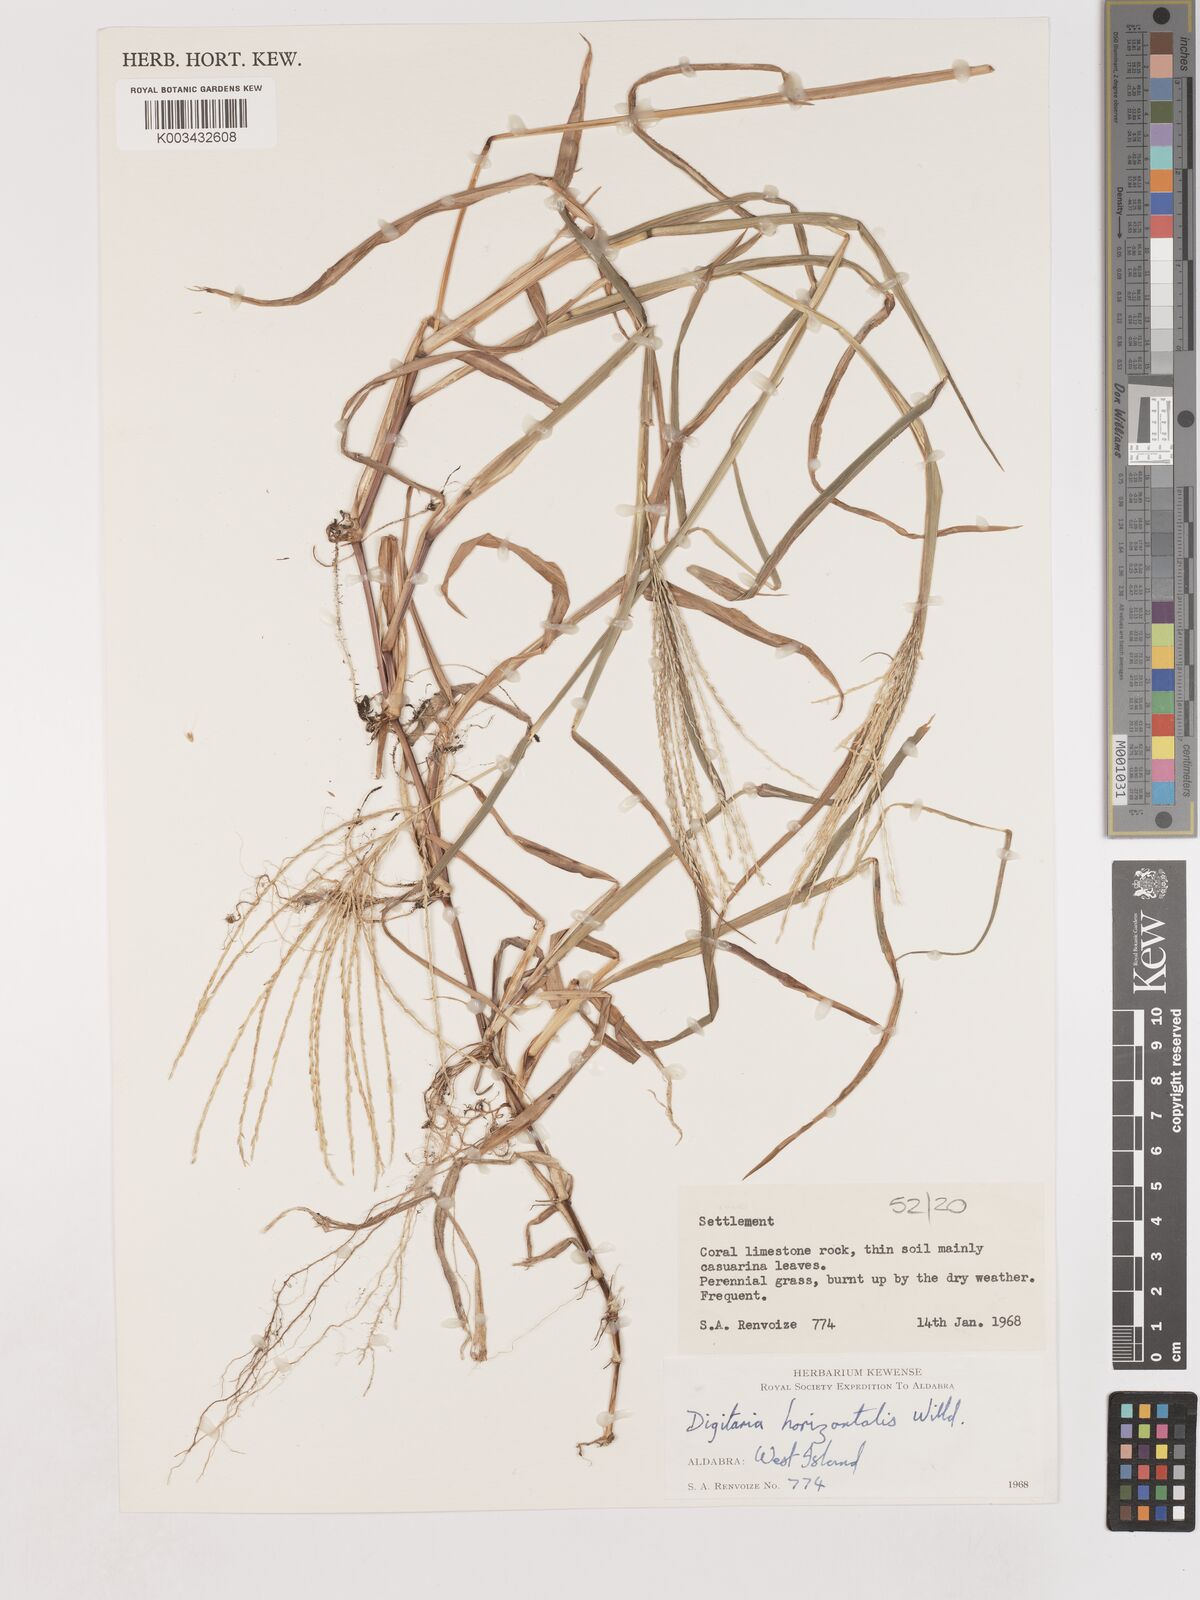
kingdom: Plantae
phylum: Tracheophyta
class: Liliopsida
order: Poales
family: Poaceae
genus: Digitaria
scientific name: Digitaria horizontalis
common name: Jamaican crabgrass
